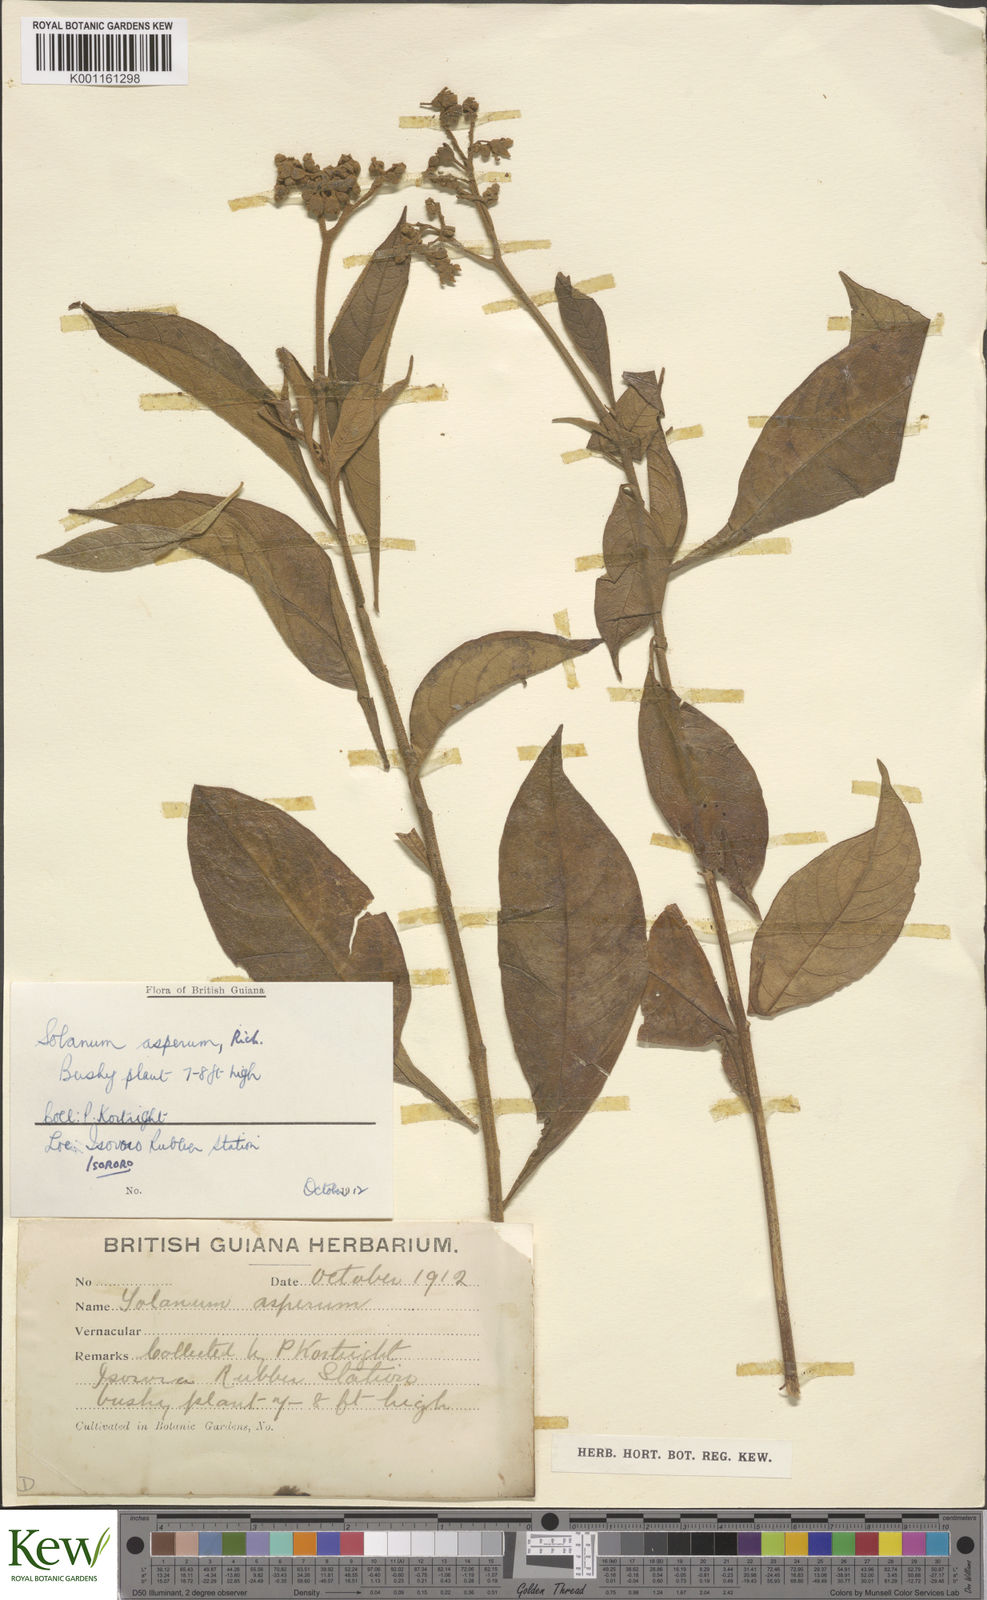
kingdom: Plantae
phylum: Tracheophyta
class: Magnoliopsida
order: Solanales
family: Solanaceae
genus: Solanum
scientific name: Solanum asperum
